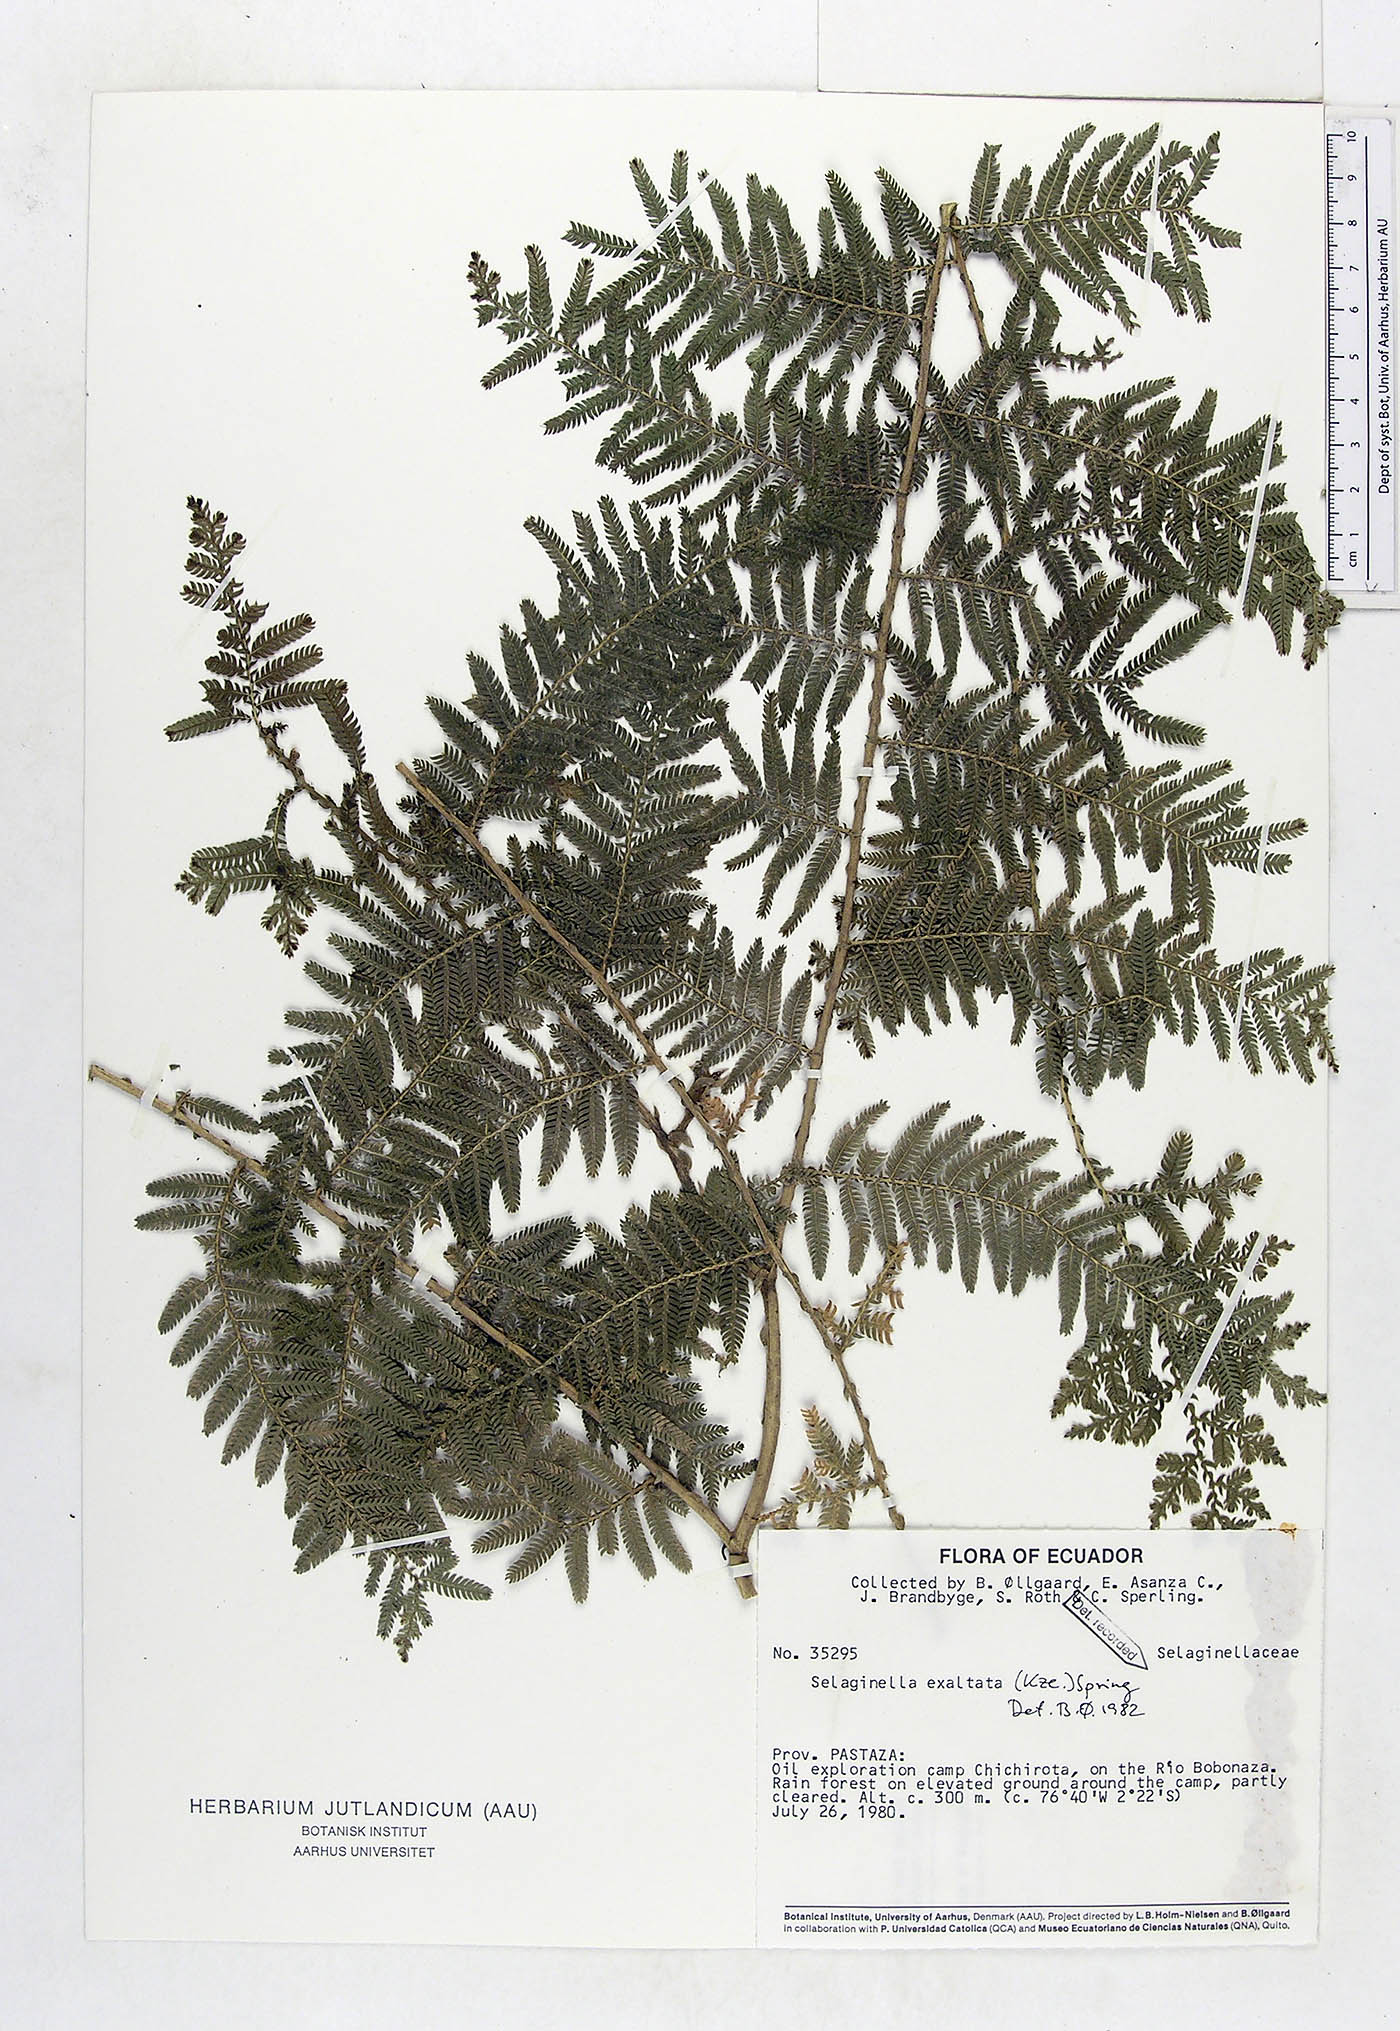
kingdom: Plantae
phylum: Tracheophyta
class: Lycopodiopsida
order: Selaginellales
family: Selaginellaceae
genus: Selaginella
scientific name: Selaginella exaltata
